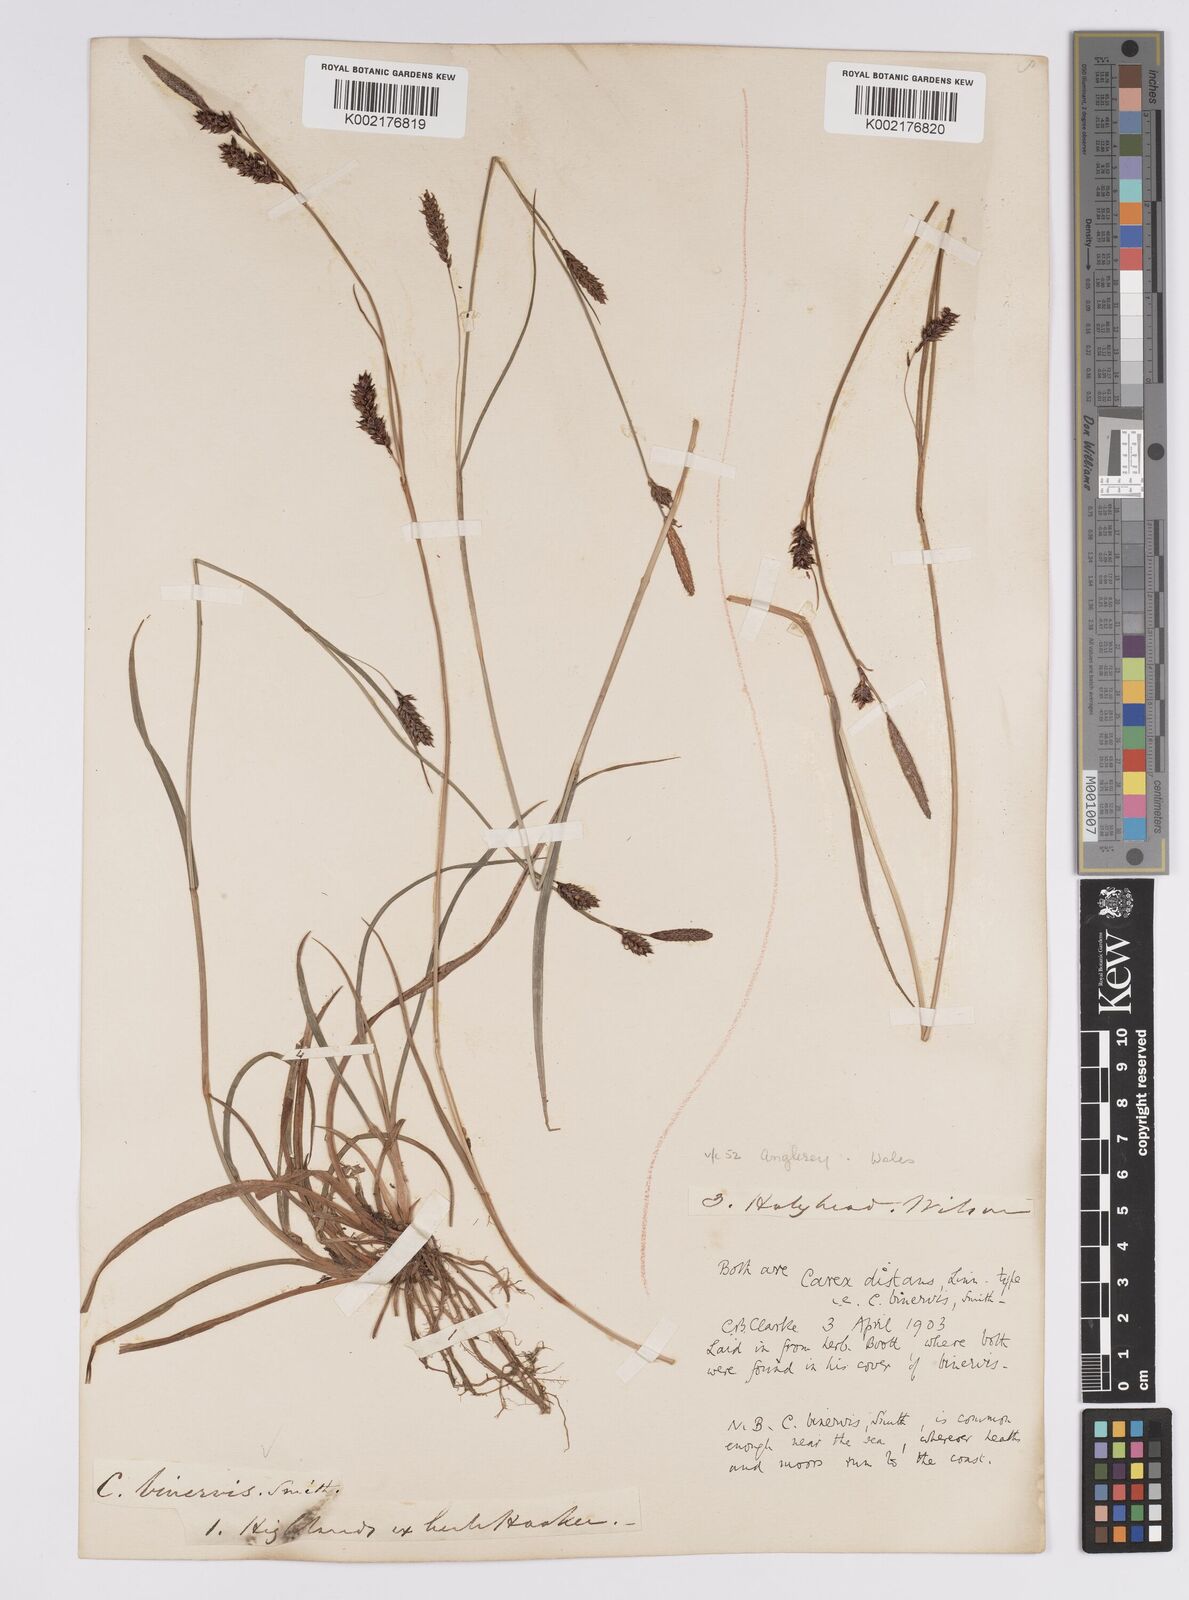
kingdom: Plantae
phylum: Tracheophyta
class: Liliopsida
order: Poales
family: Cyperaceae
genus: Carex
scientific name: Carex binervis
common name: Green-ribbed sedge
